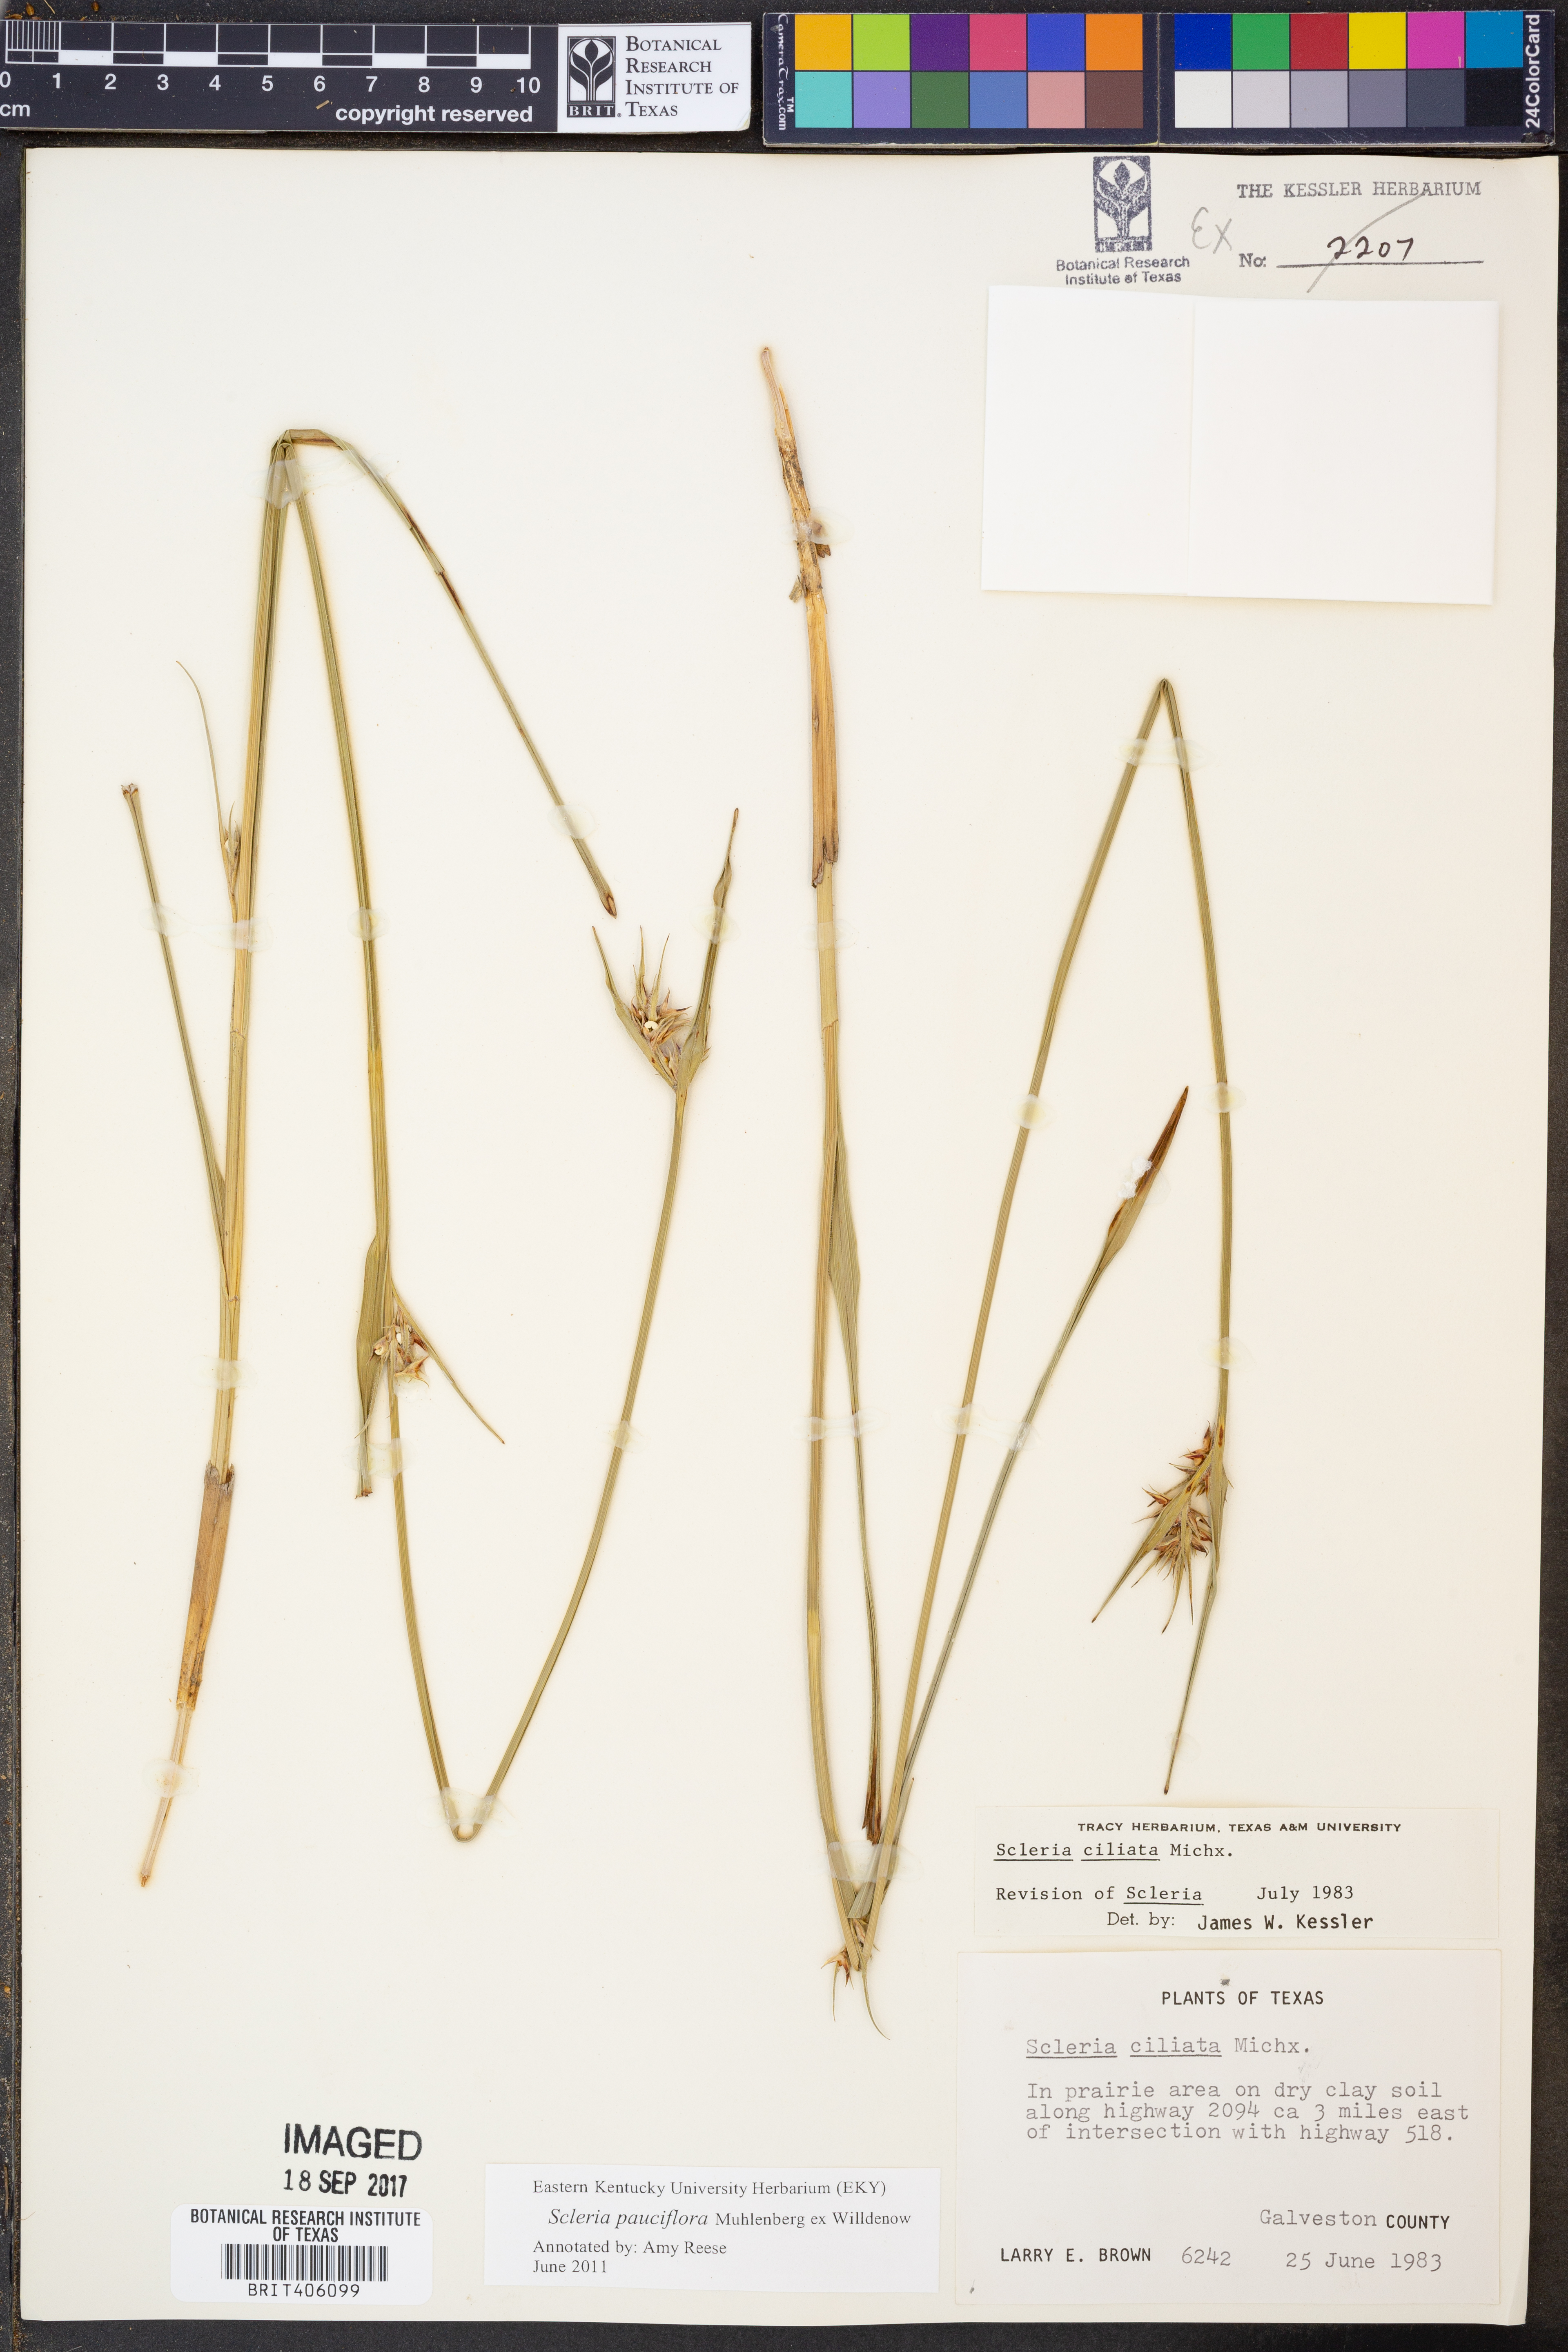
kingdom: Plantae
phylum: Tracheophyta
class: Liliopsida
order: Poales
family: Cyperaceae
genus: Scleria
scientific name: Scleria pauciflora
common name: Few-flowered nutrush
